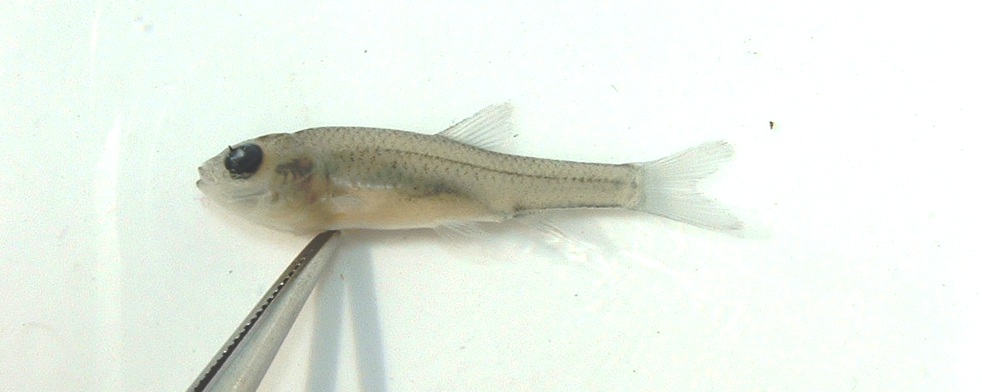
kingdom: Animalia
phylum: Chordata
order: Cypriniformes
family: Cyprinidae
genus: Enteromius
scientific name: Enteromius anoplus
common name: Chubbyhead barb
